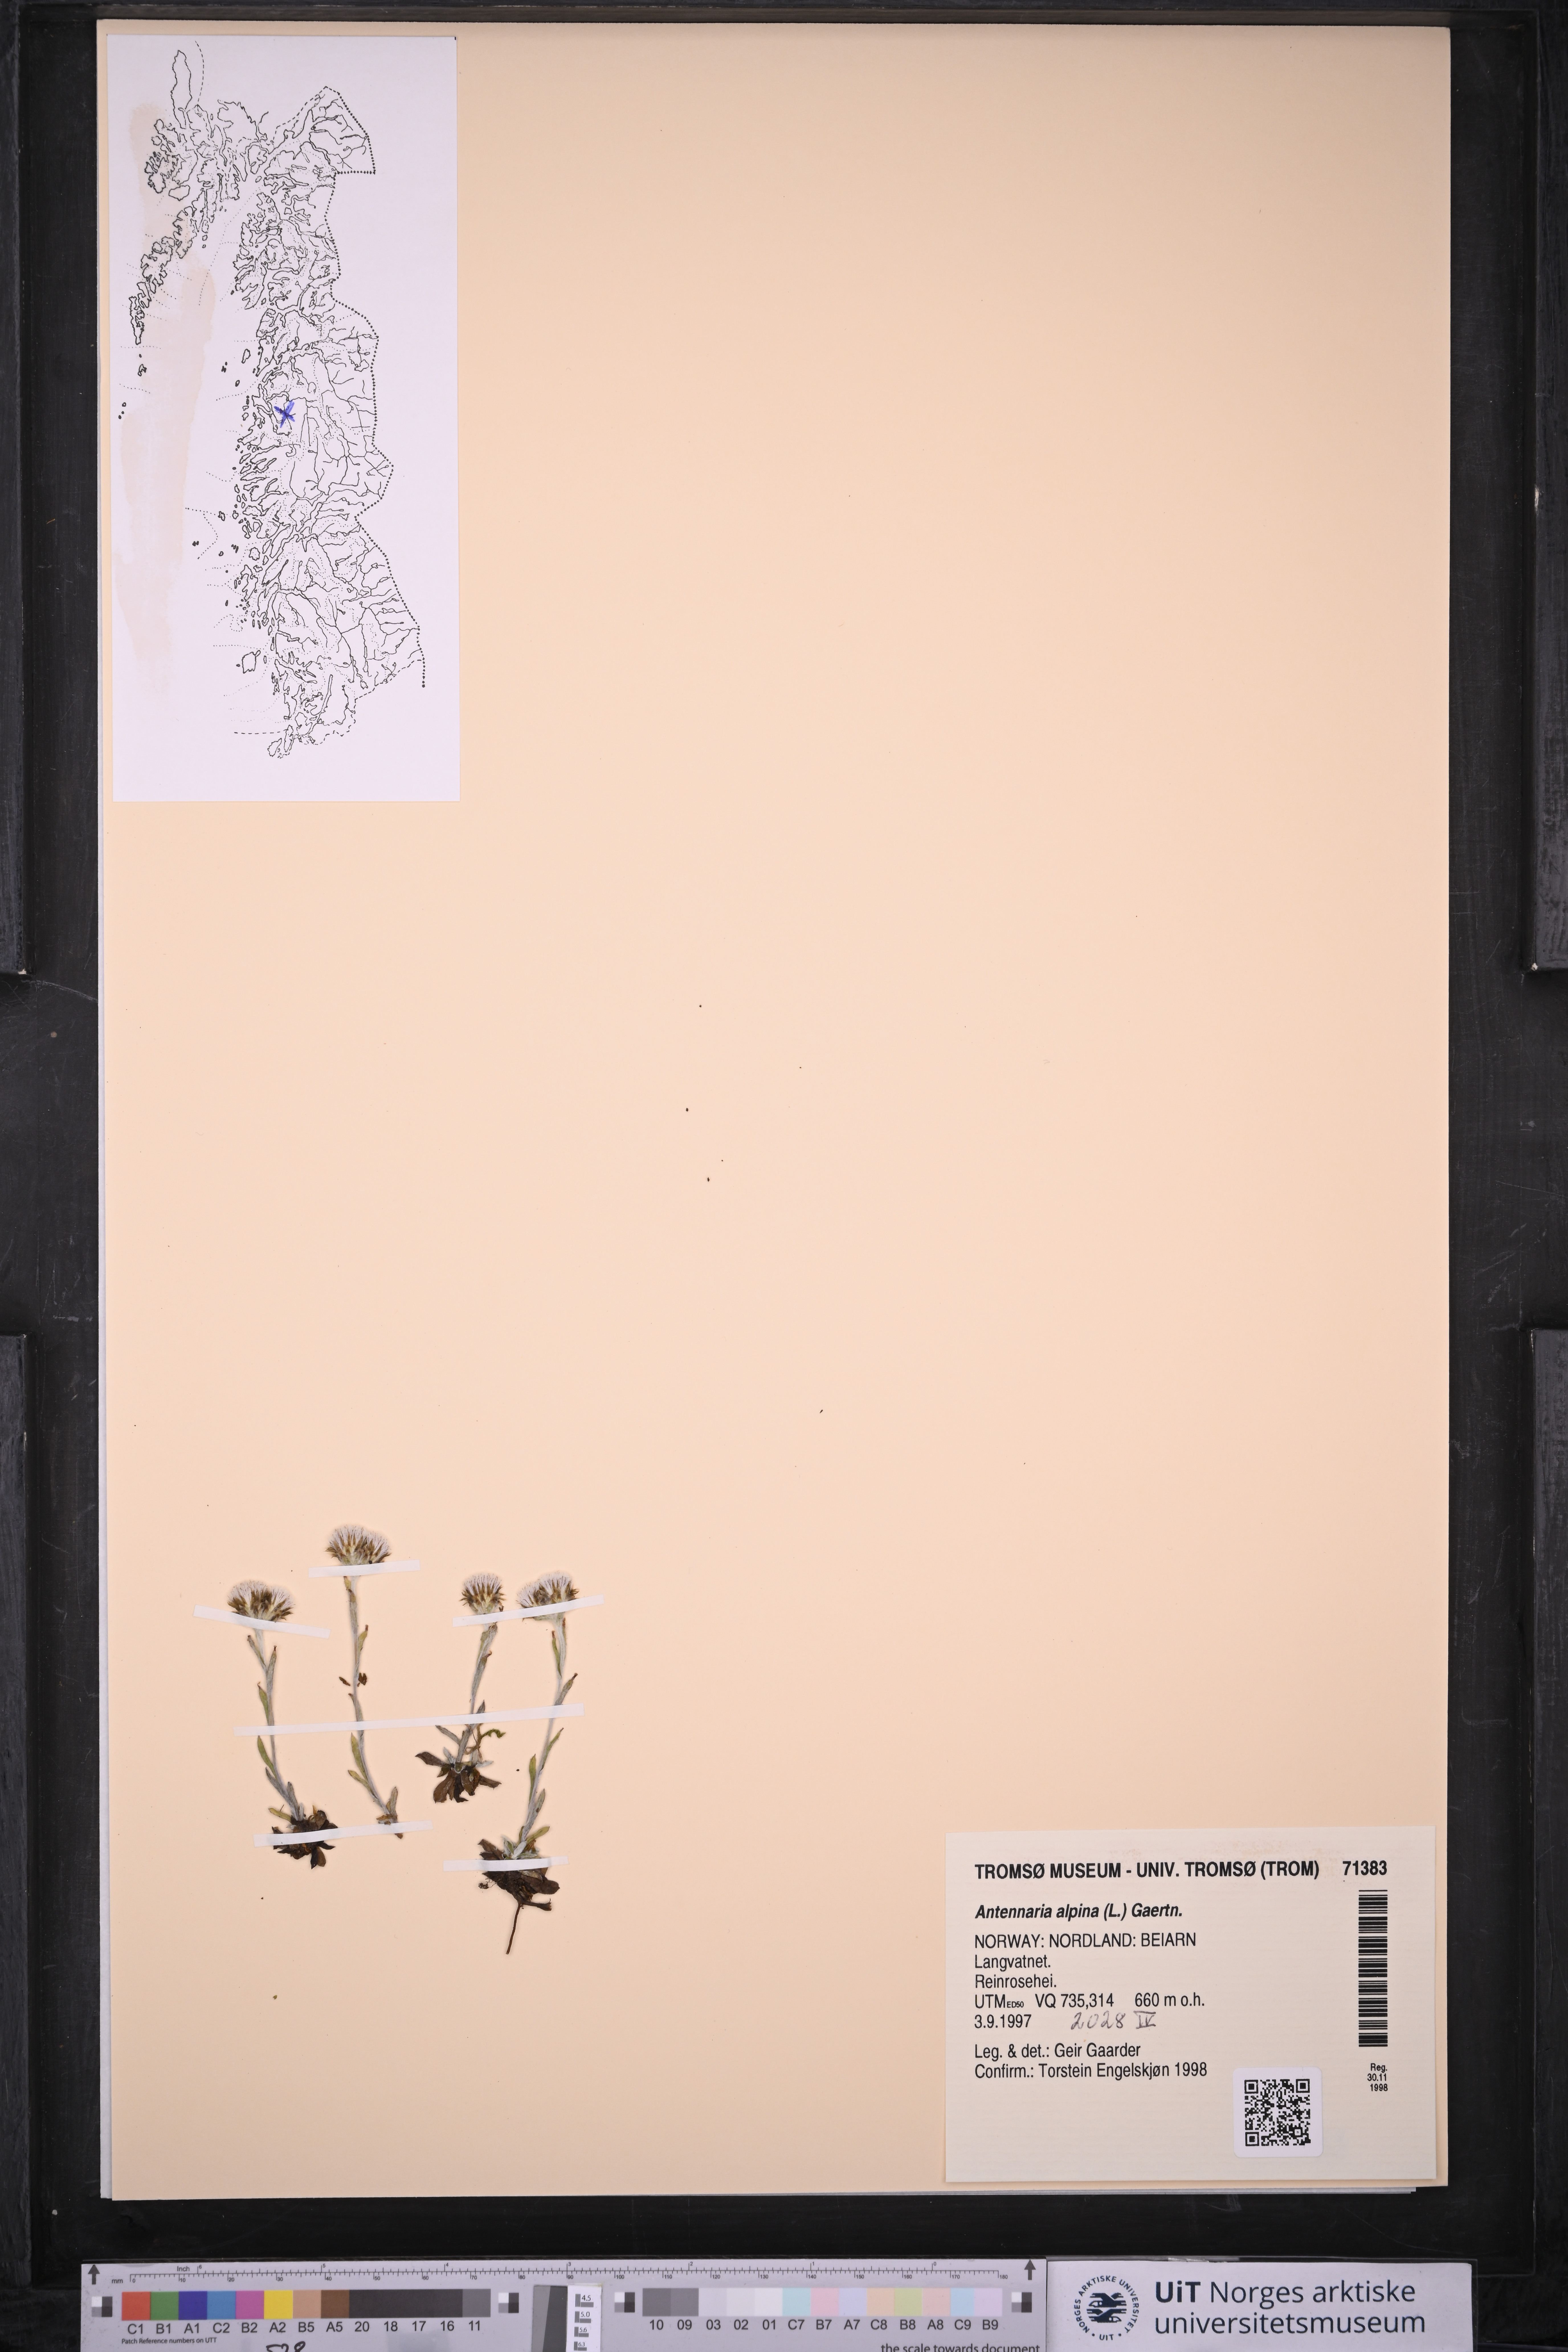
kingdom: Plantae
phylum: Tracheophyta
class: Magnoliopsida
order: Asterales
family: Asteraceae
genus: Antennaria
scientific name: Antennaria alpina
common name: Alpine pussytoes
